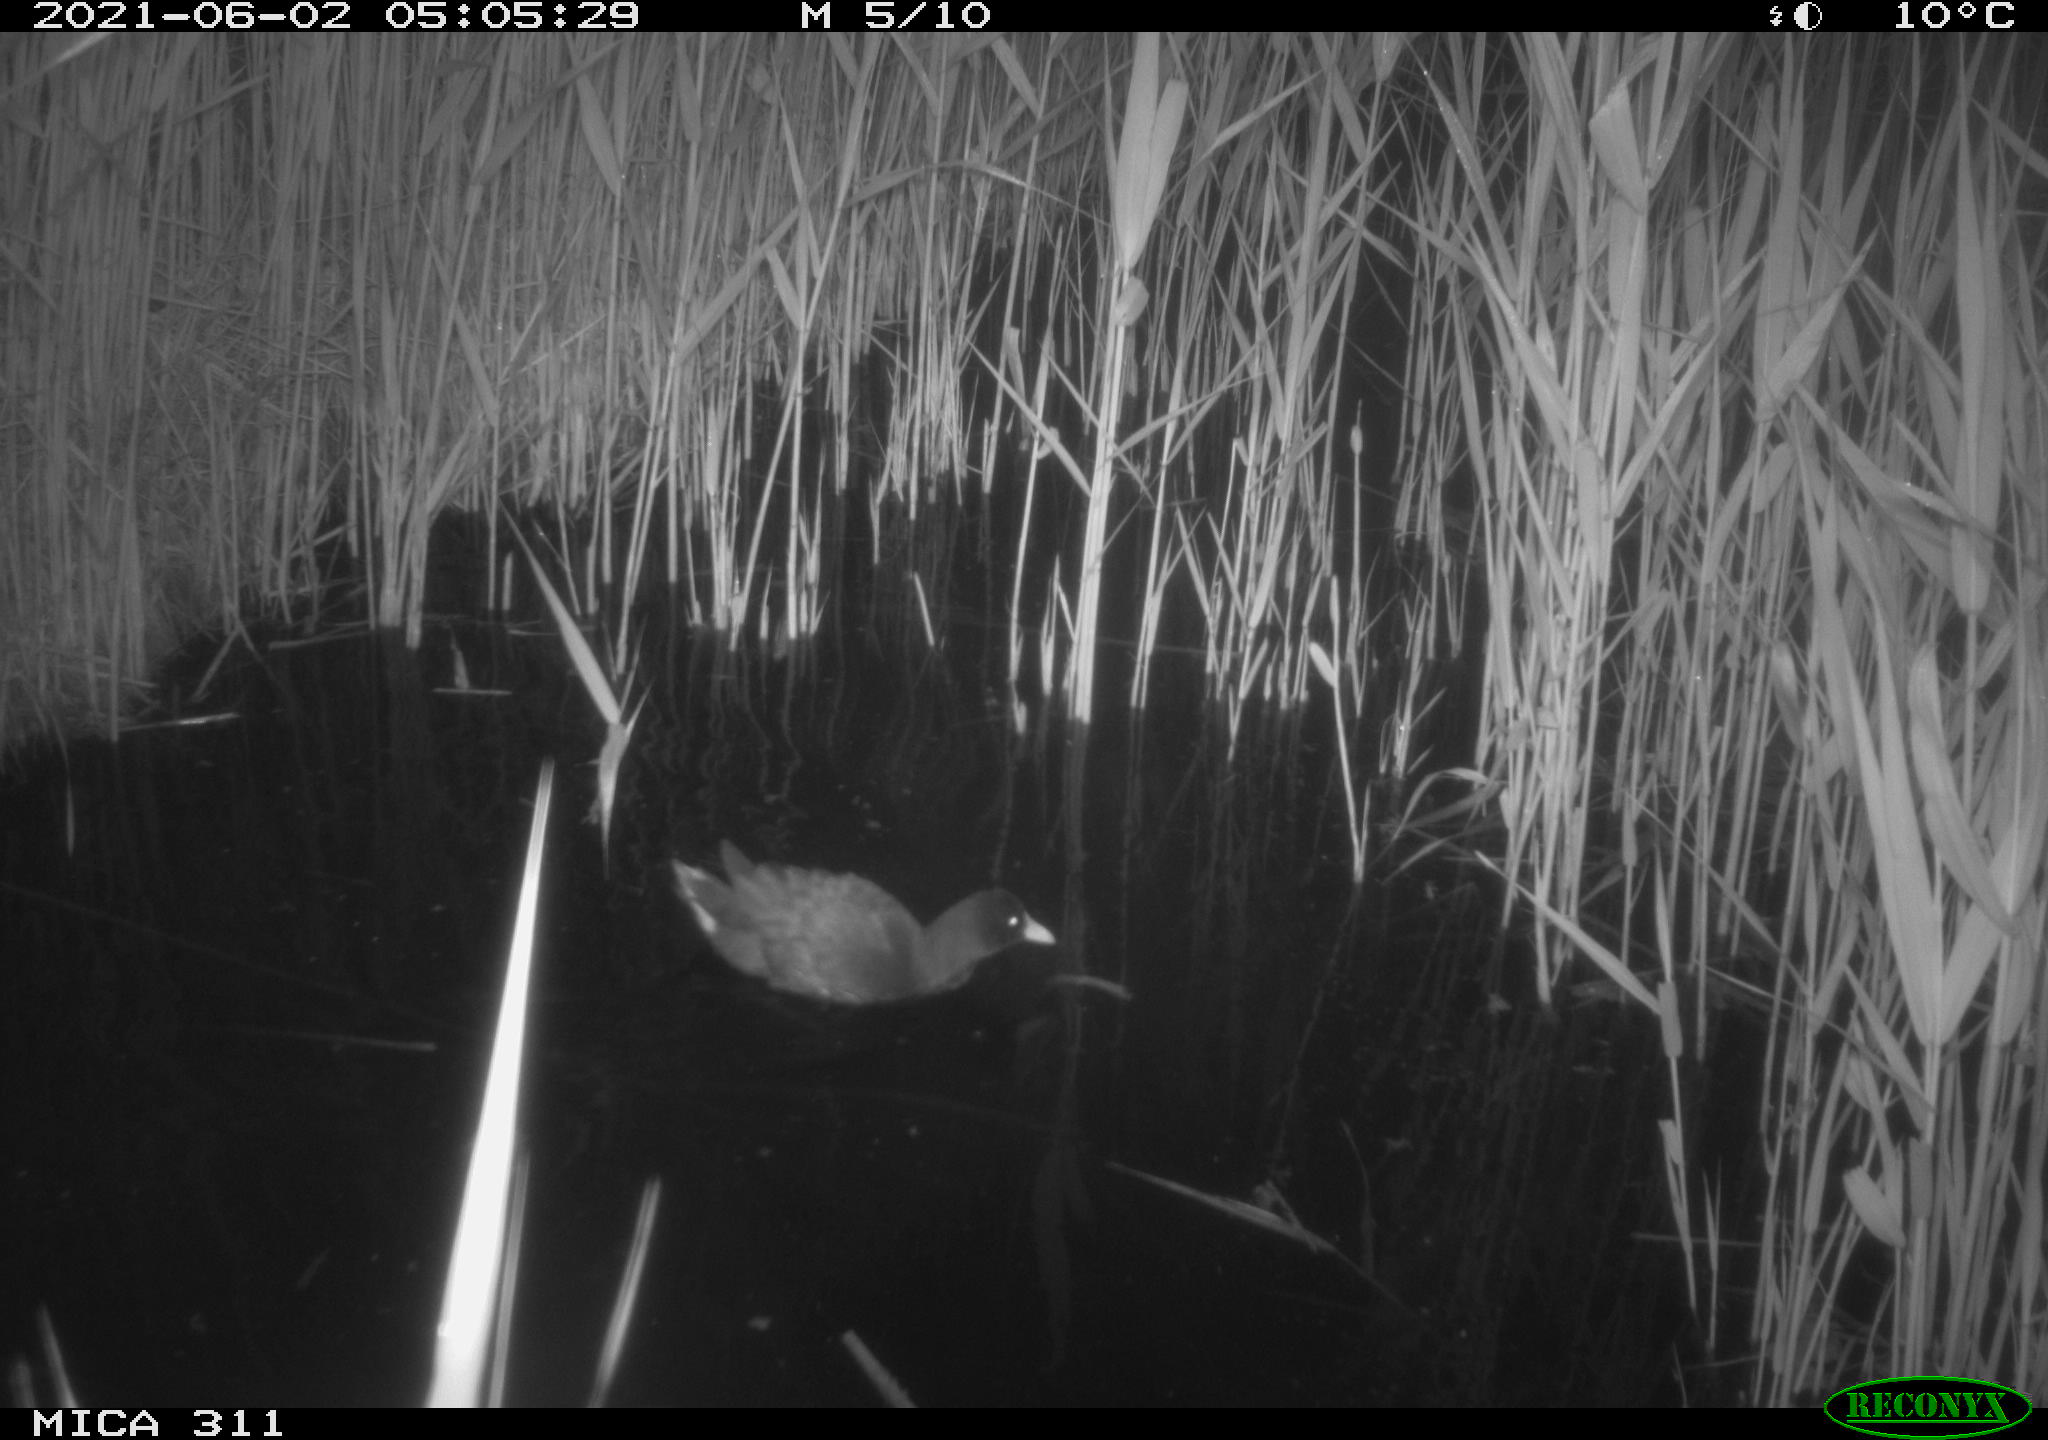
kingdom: Animalia
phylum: Chordata
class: Aves
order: Gruiformes
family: Rallidae
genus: Gallinula
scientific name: Gallinula chloropus
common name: Common moorhen
